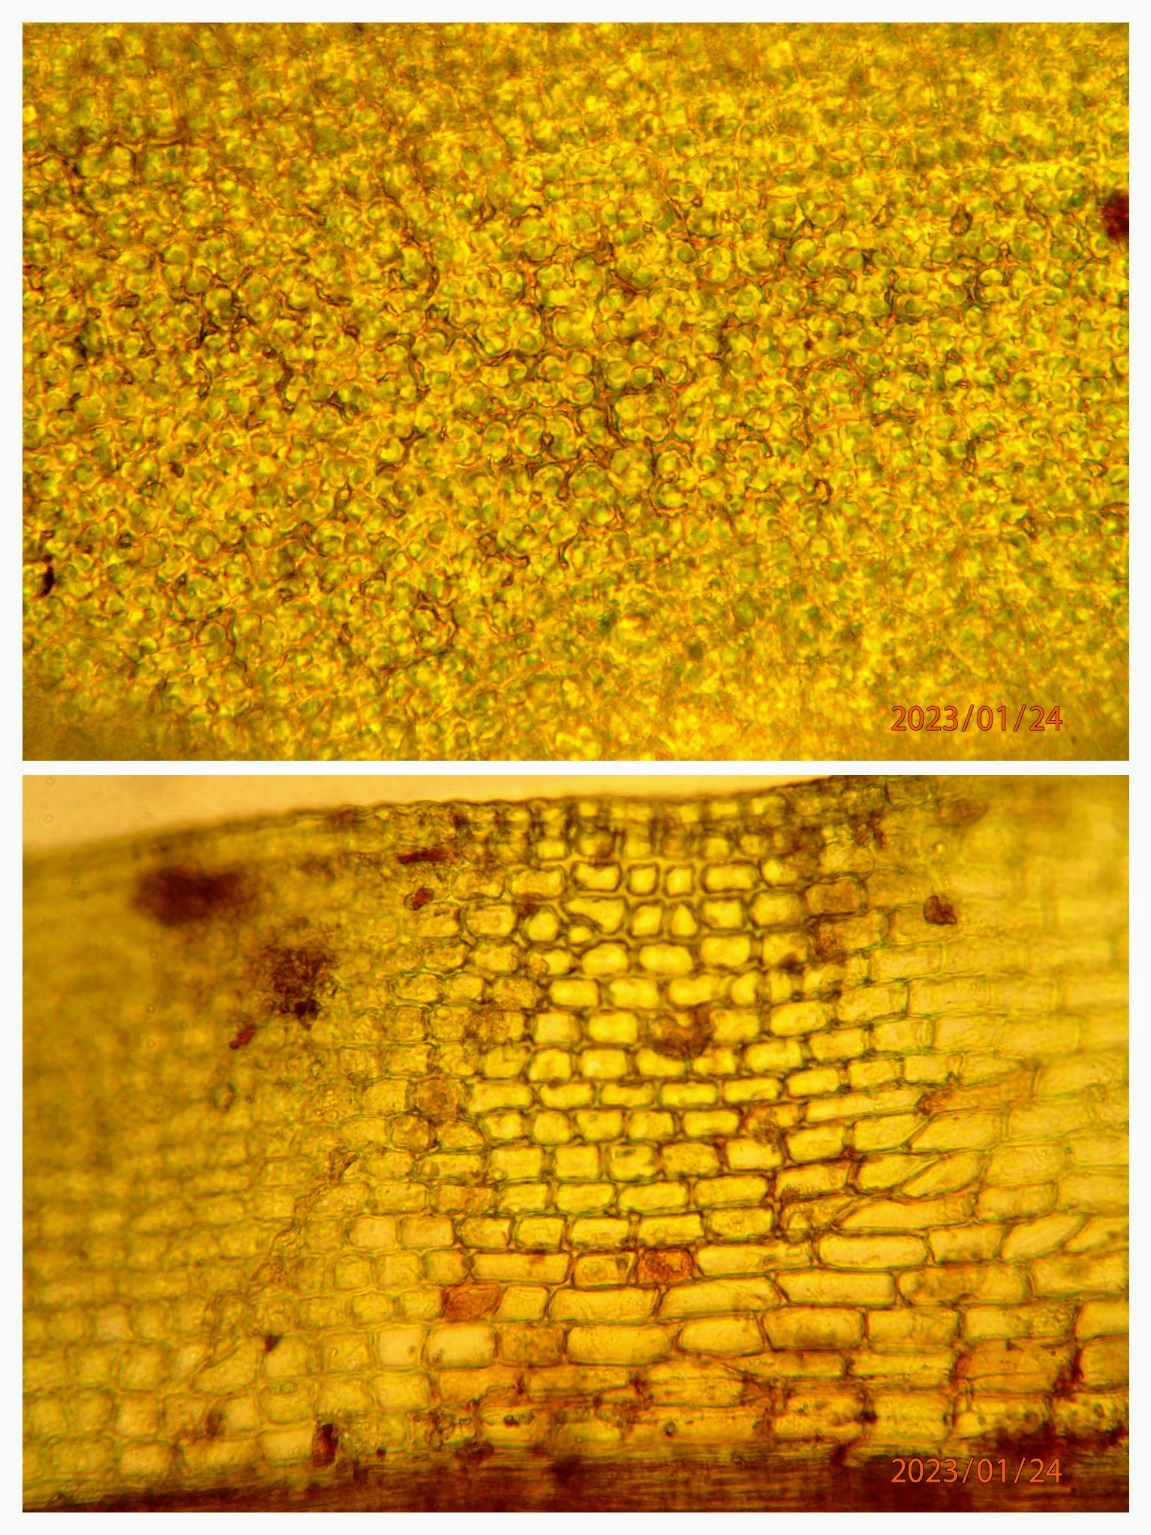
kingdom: Plantae
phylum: Bryophyta
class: Bryopsida
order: Pottiales
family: Pottiaceae
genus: Tortula
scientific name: Tortula muralis
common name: Mur-snotand
